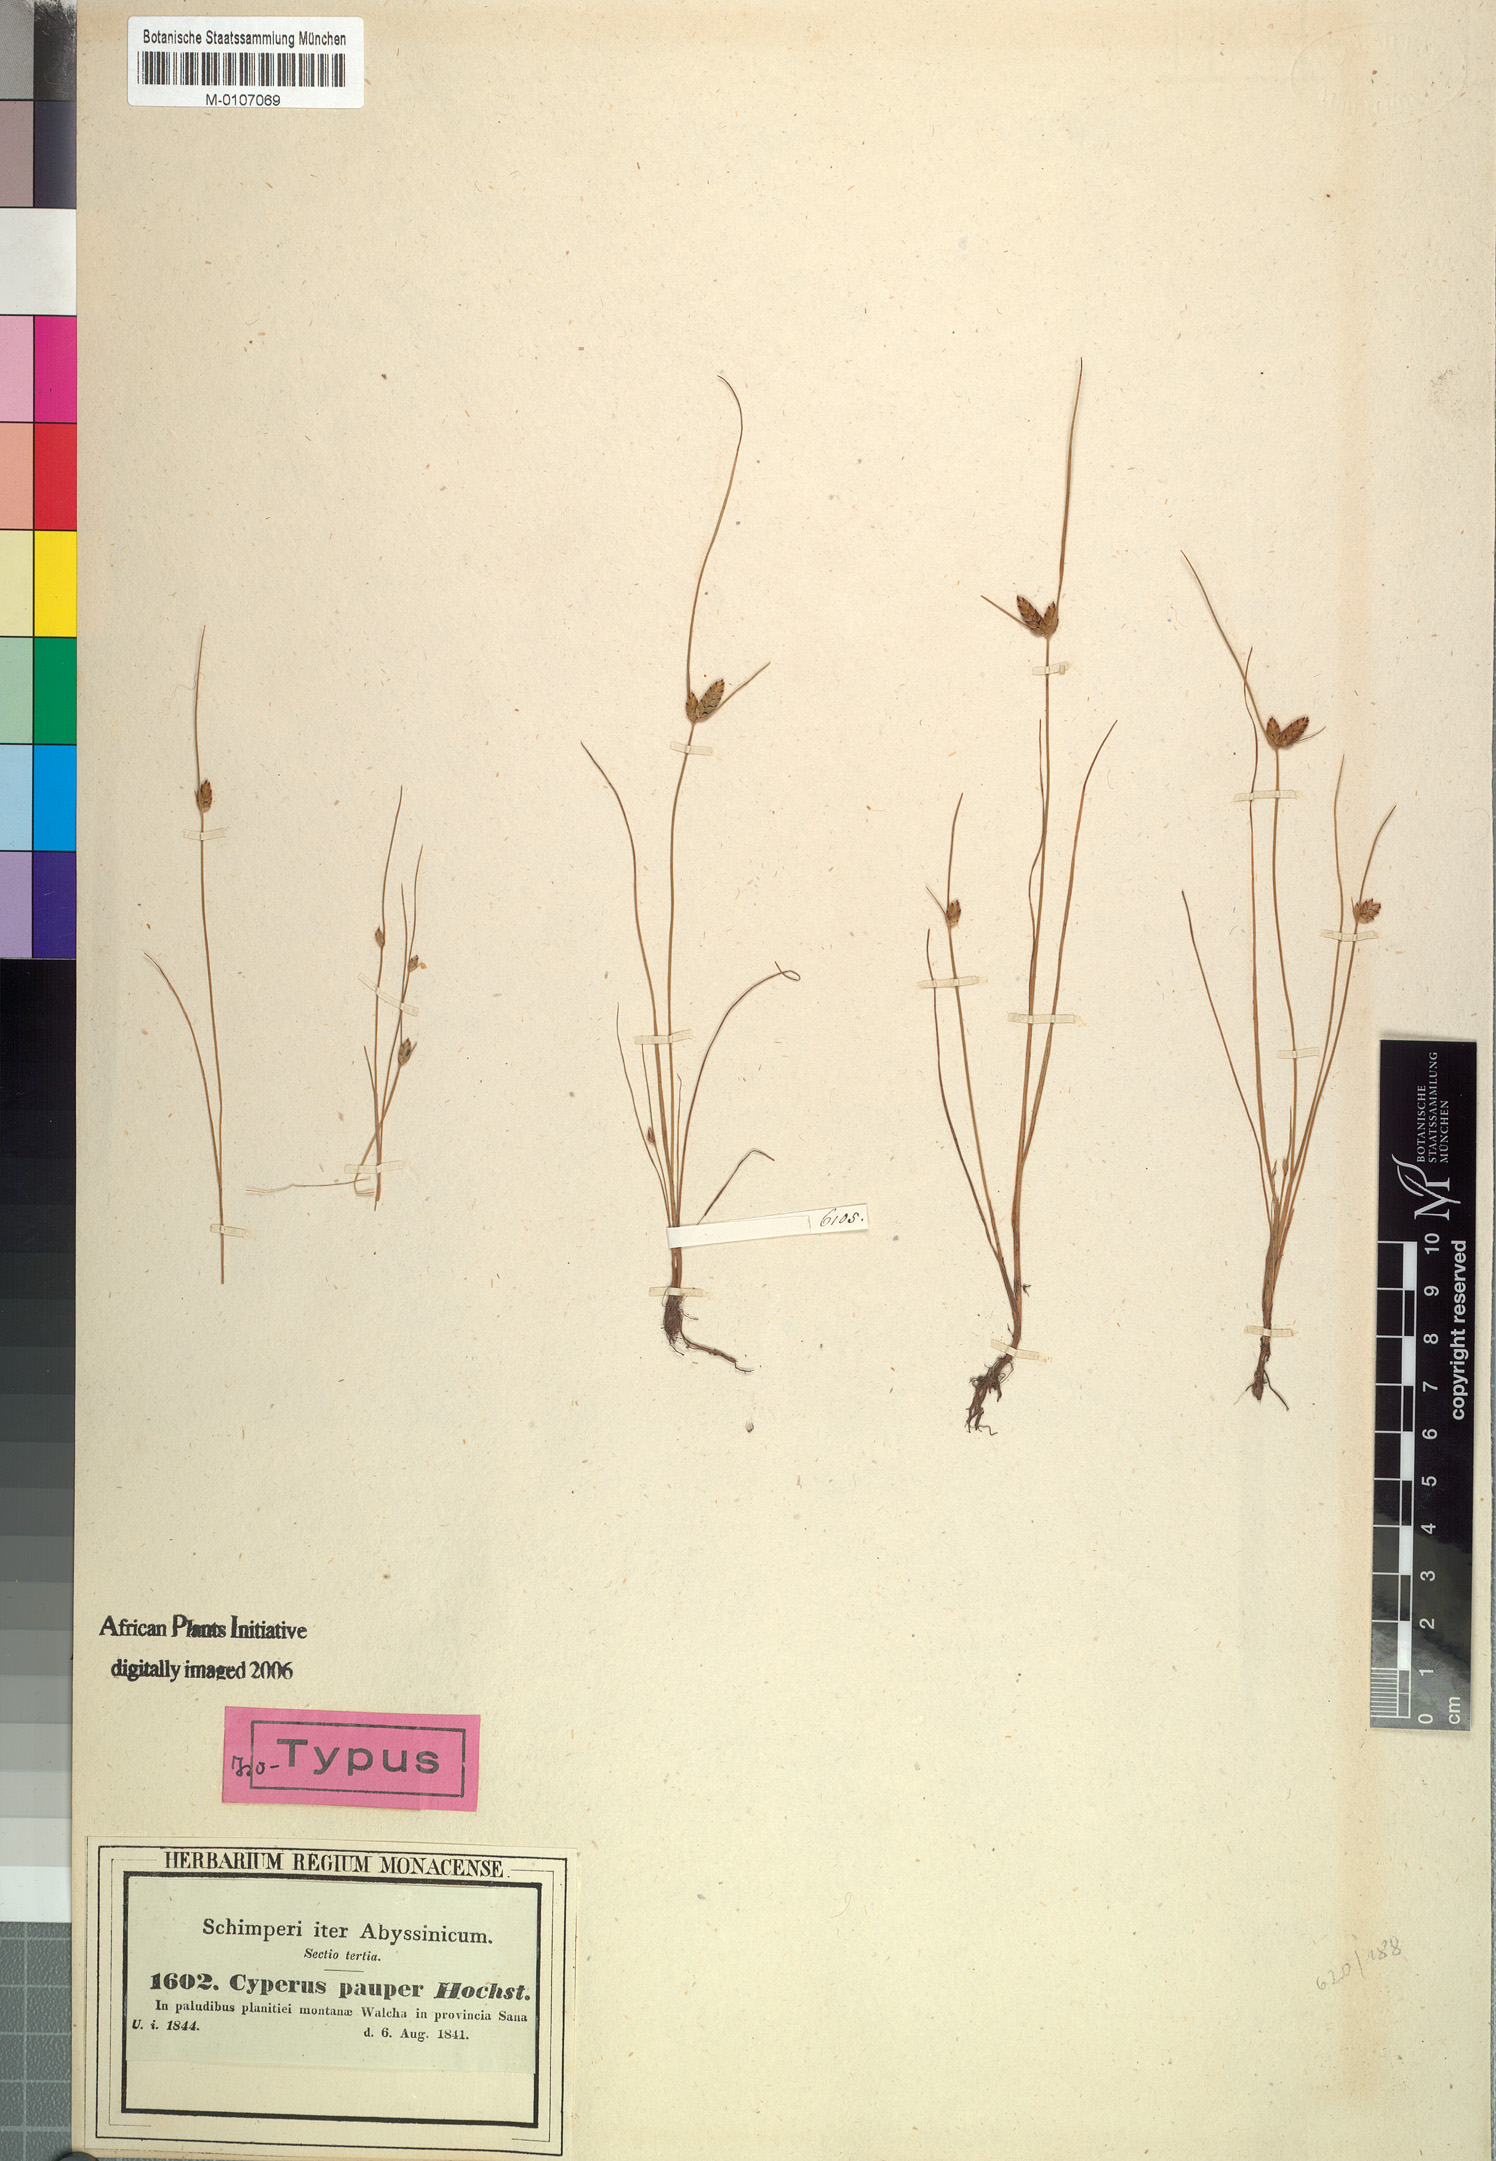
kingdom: Plantae
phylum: Tracheophyta
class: Liliopsida
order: Poales
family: Cyperaceae
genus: Cyperus
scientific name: Cyperus pauper
